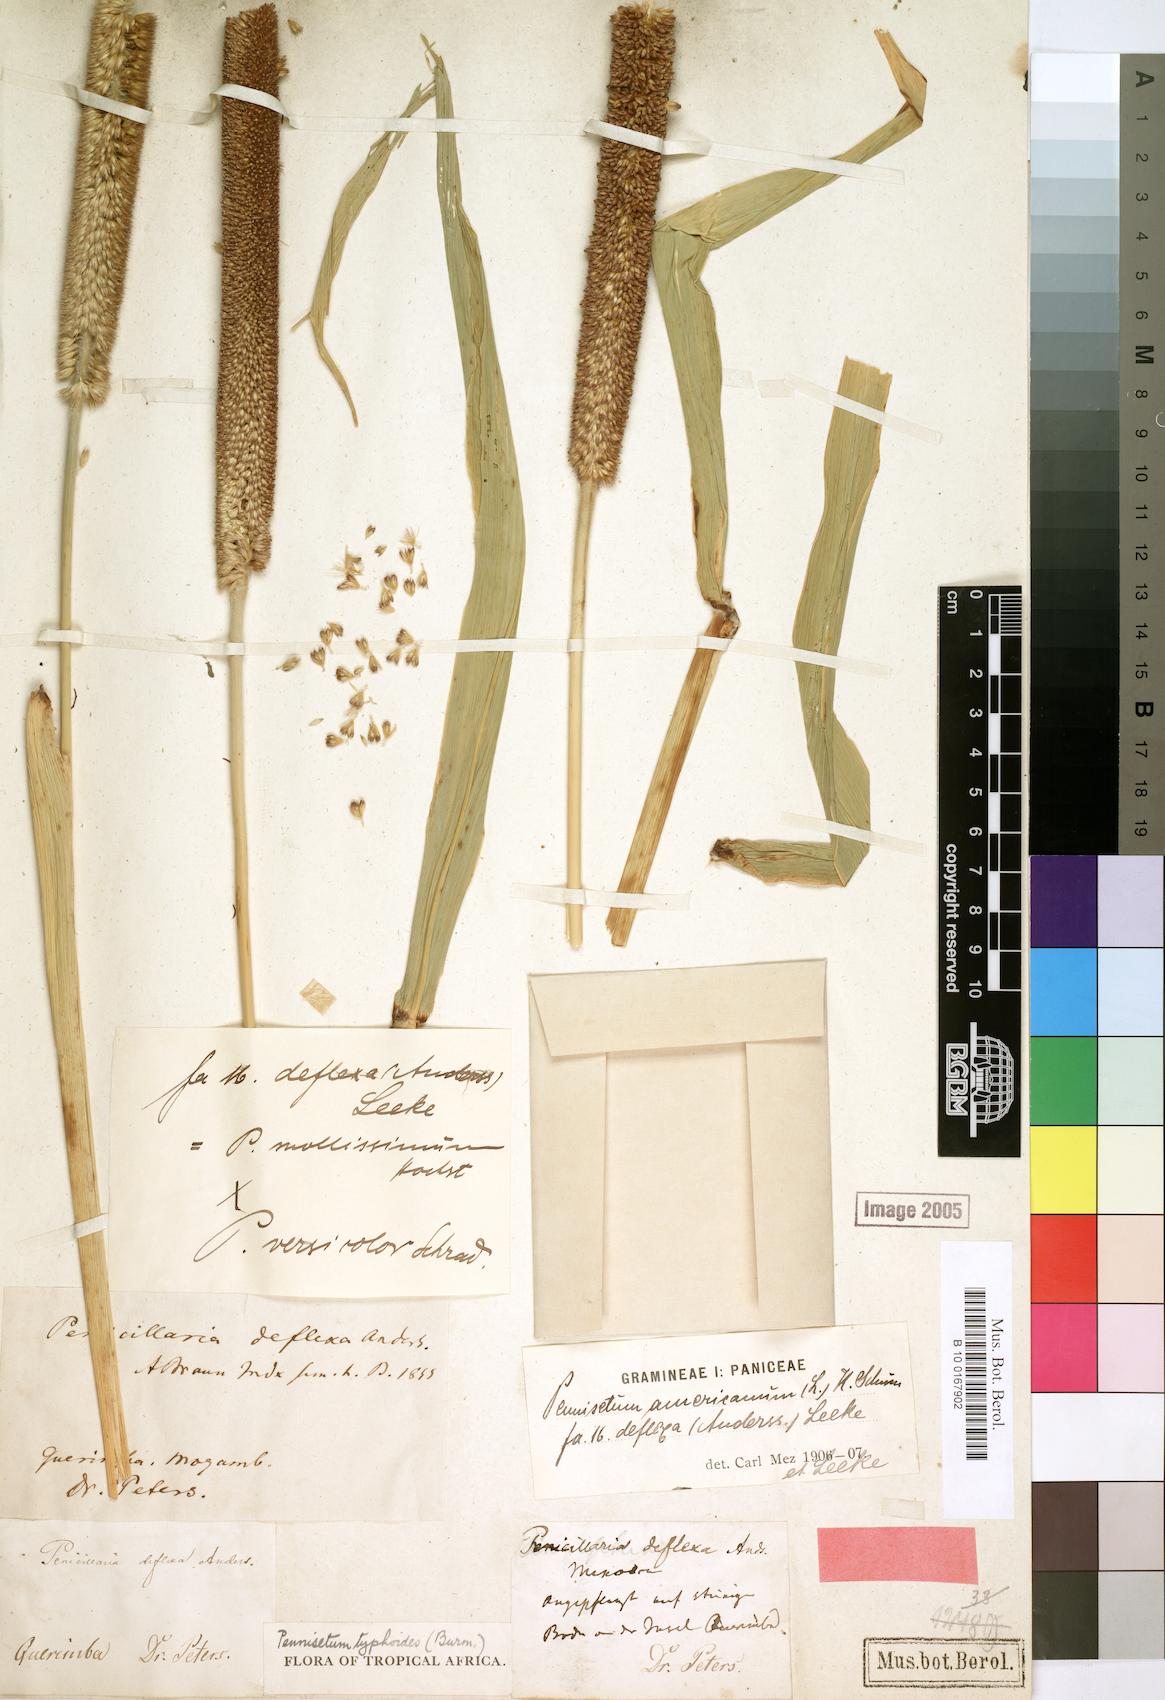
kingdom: Plantae
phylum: Tracheophyta
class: Liliopsida
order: Poales
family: Poaceae
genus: Cenchrus
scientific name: Cenchrus americanus
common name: Pearl millet
